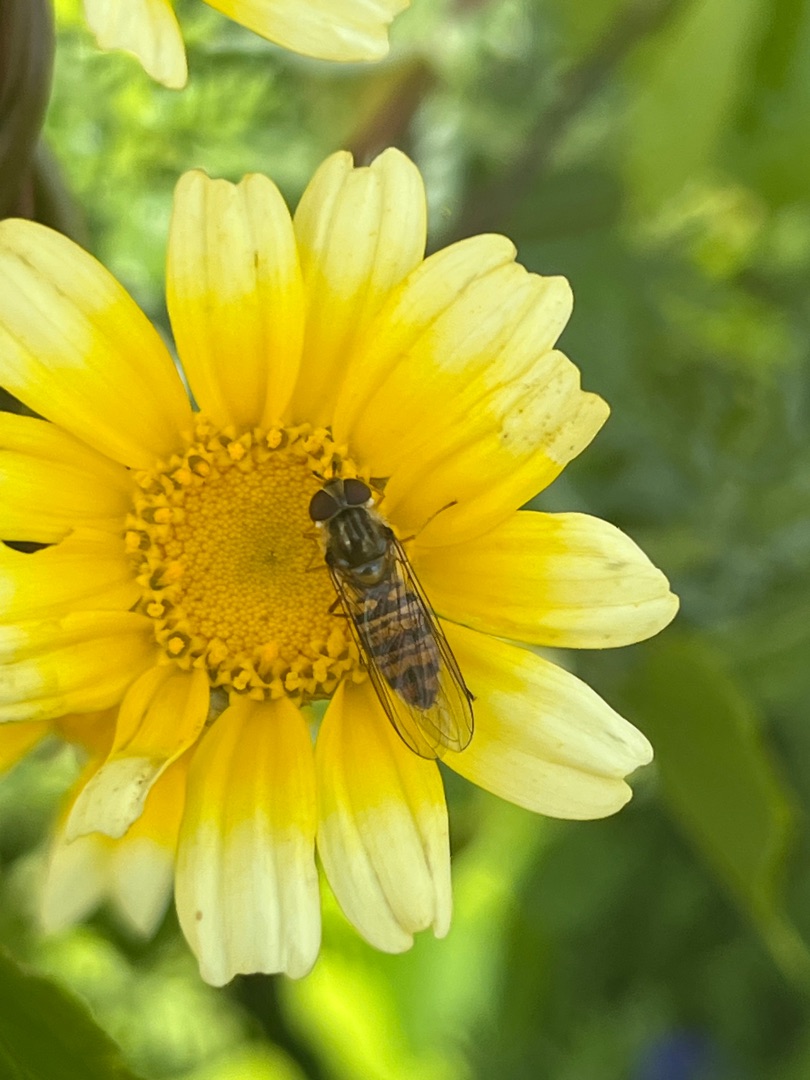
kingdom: Animalia
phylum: Arthropoda
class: Insecta
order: Diptera
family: Syrphidae
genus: Episyrphus
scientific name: Episyrphus balteatus
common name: Dobbeltbåndet svirreflue
